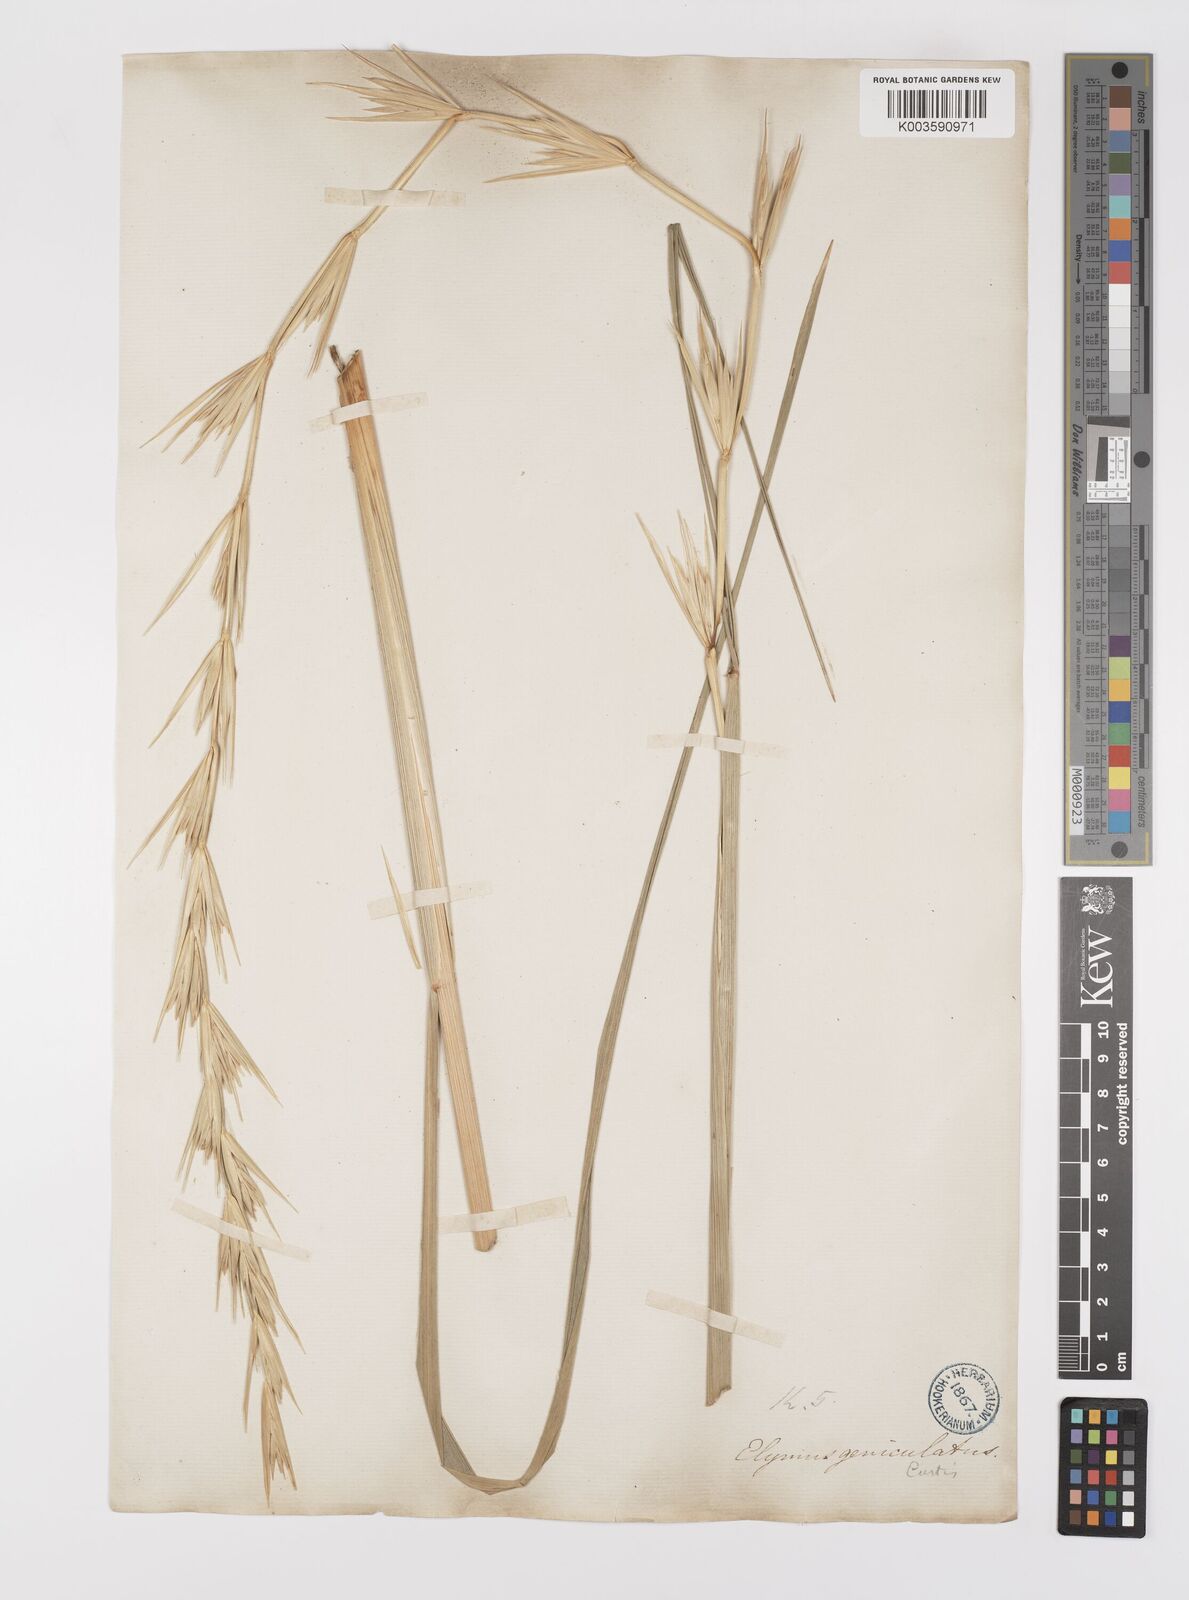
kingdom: Plantae
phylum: Tracheophyta
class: Liliopsida
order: Poales
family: Poaceae
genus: Leymus
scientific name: Leymus arenarius
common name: Lyme-grass
